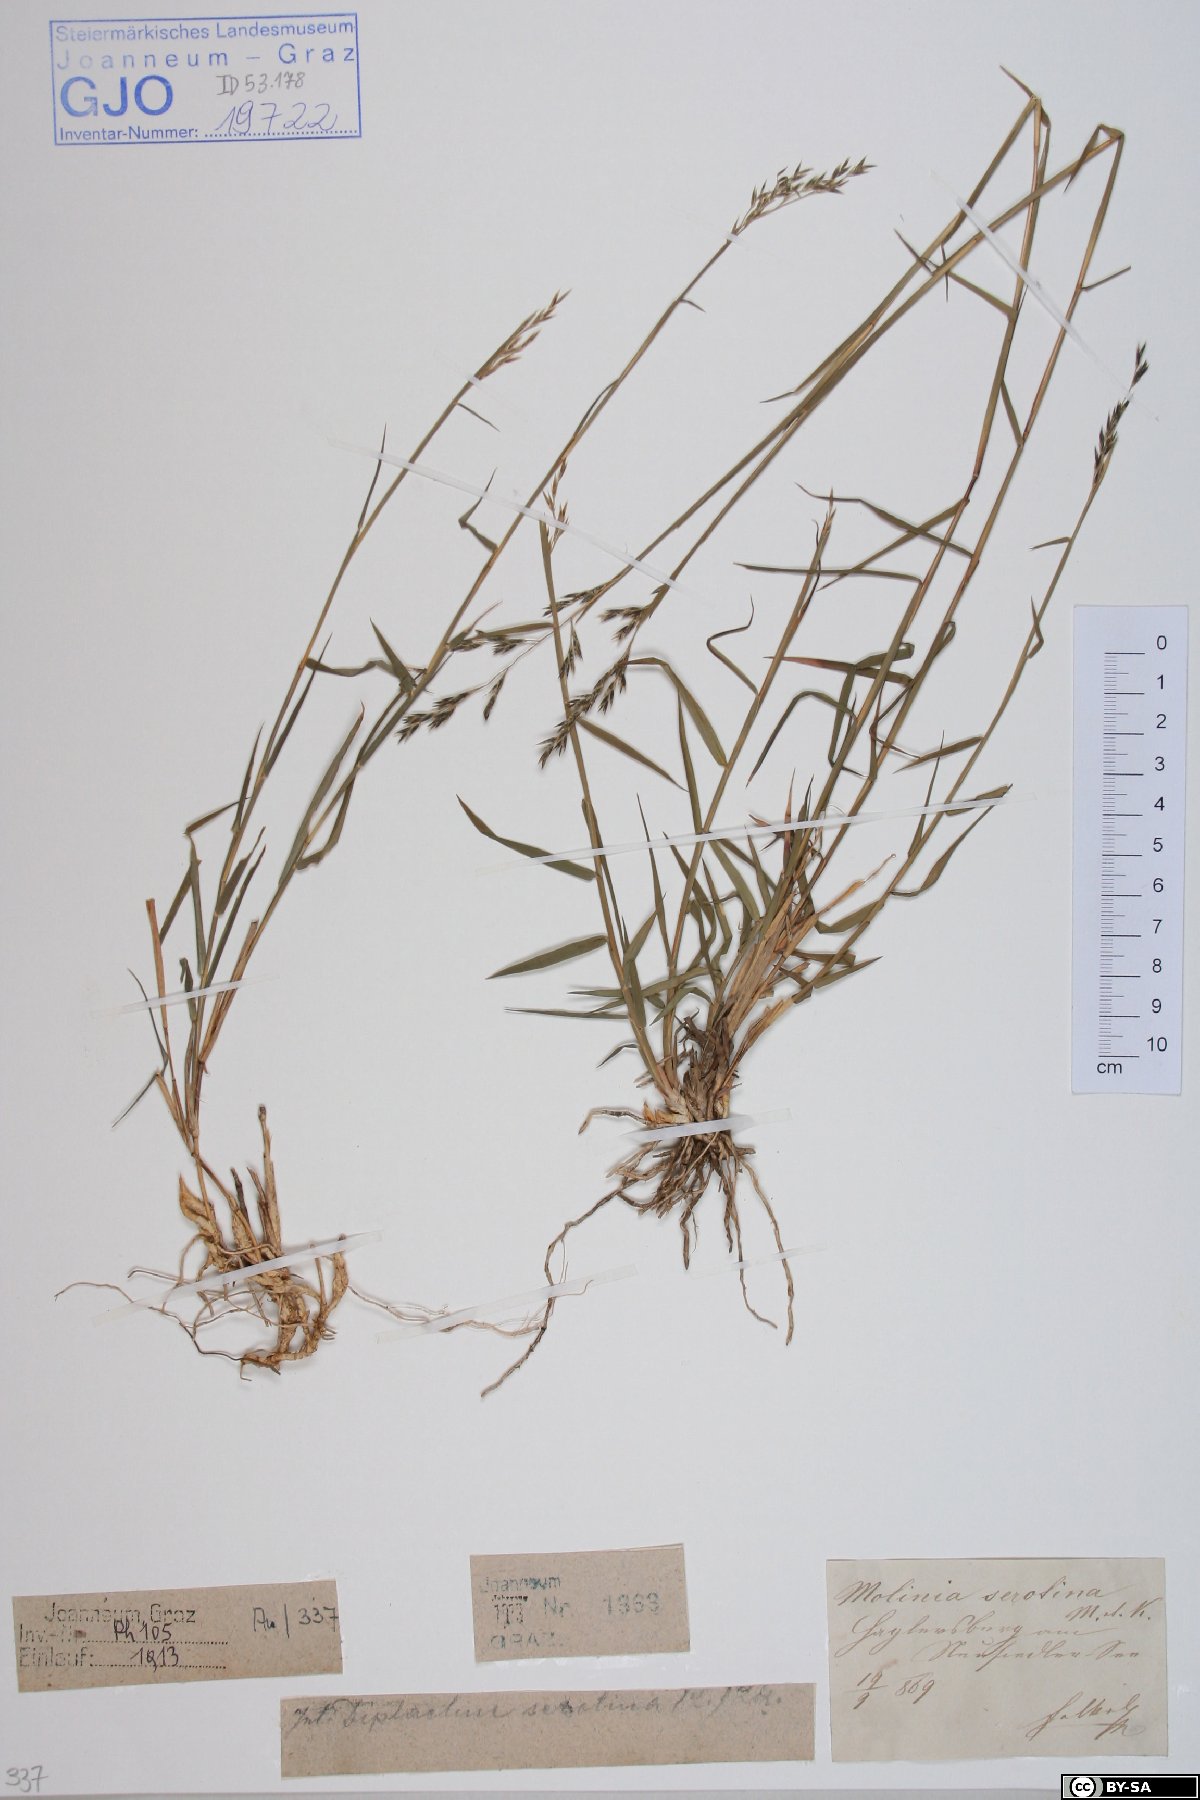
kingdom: Plantae
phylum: Tracheophyta
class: Liliopsida
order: Poales
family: Poaceae
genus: Cleistogenes
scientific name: Cleistogenes serotina
